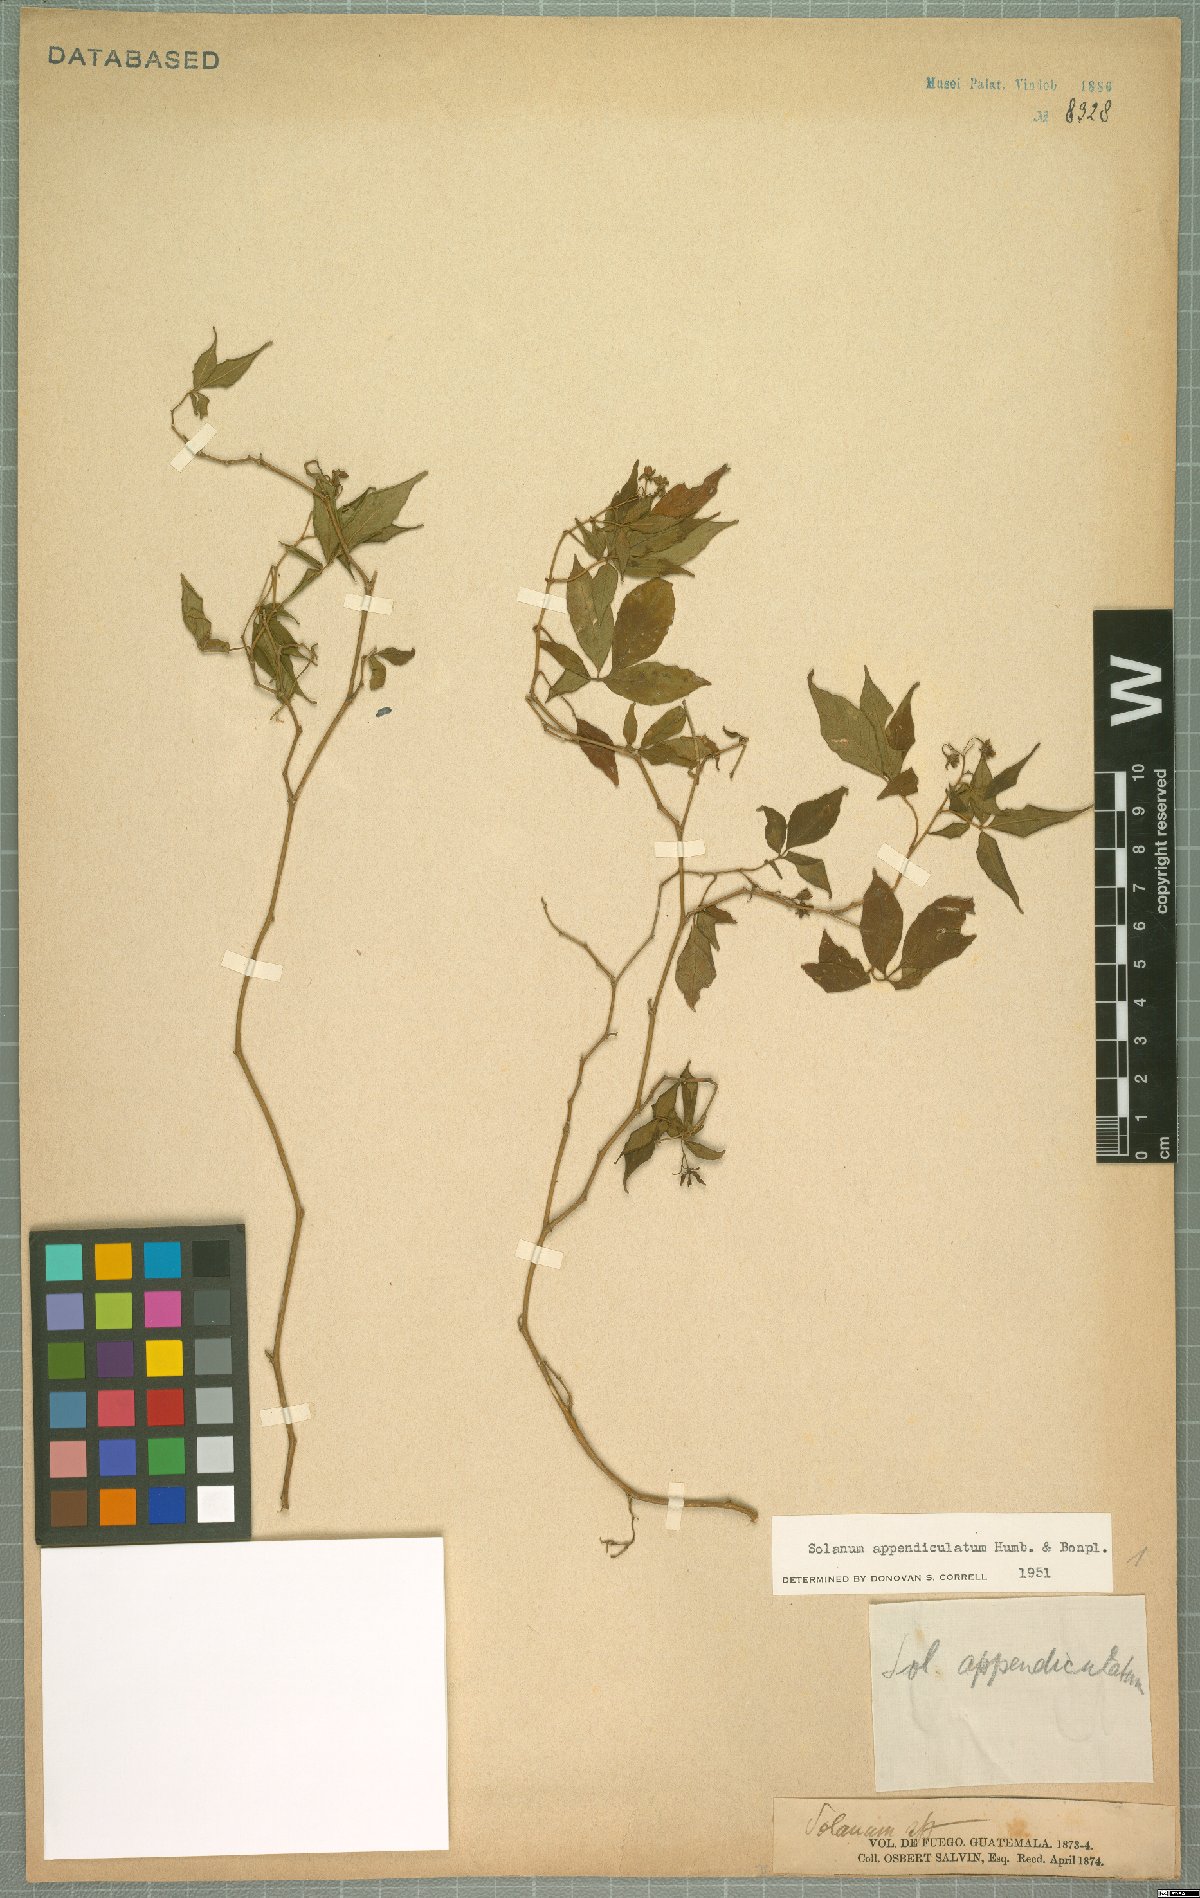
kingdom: Plantae
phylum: Tracheophyta
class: Magnoliopsida
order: Solanales
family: Solanaceae
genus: Solanum
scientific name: Solanum appendiculatum
